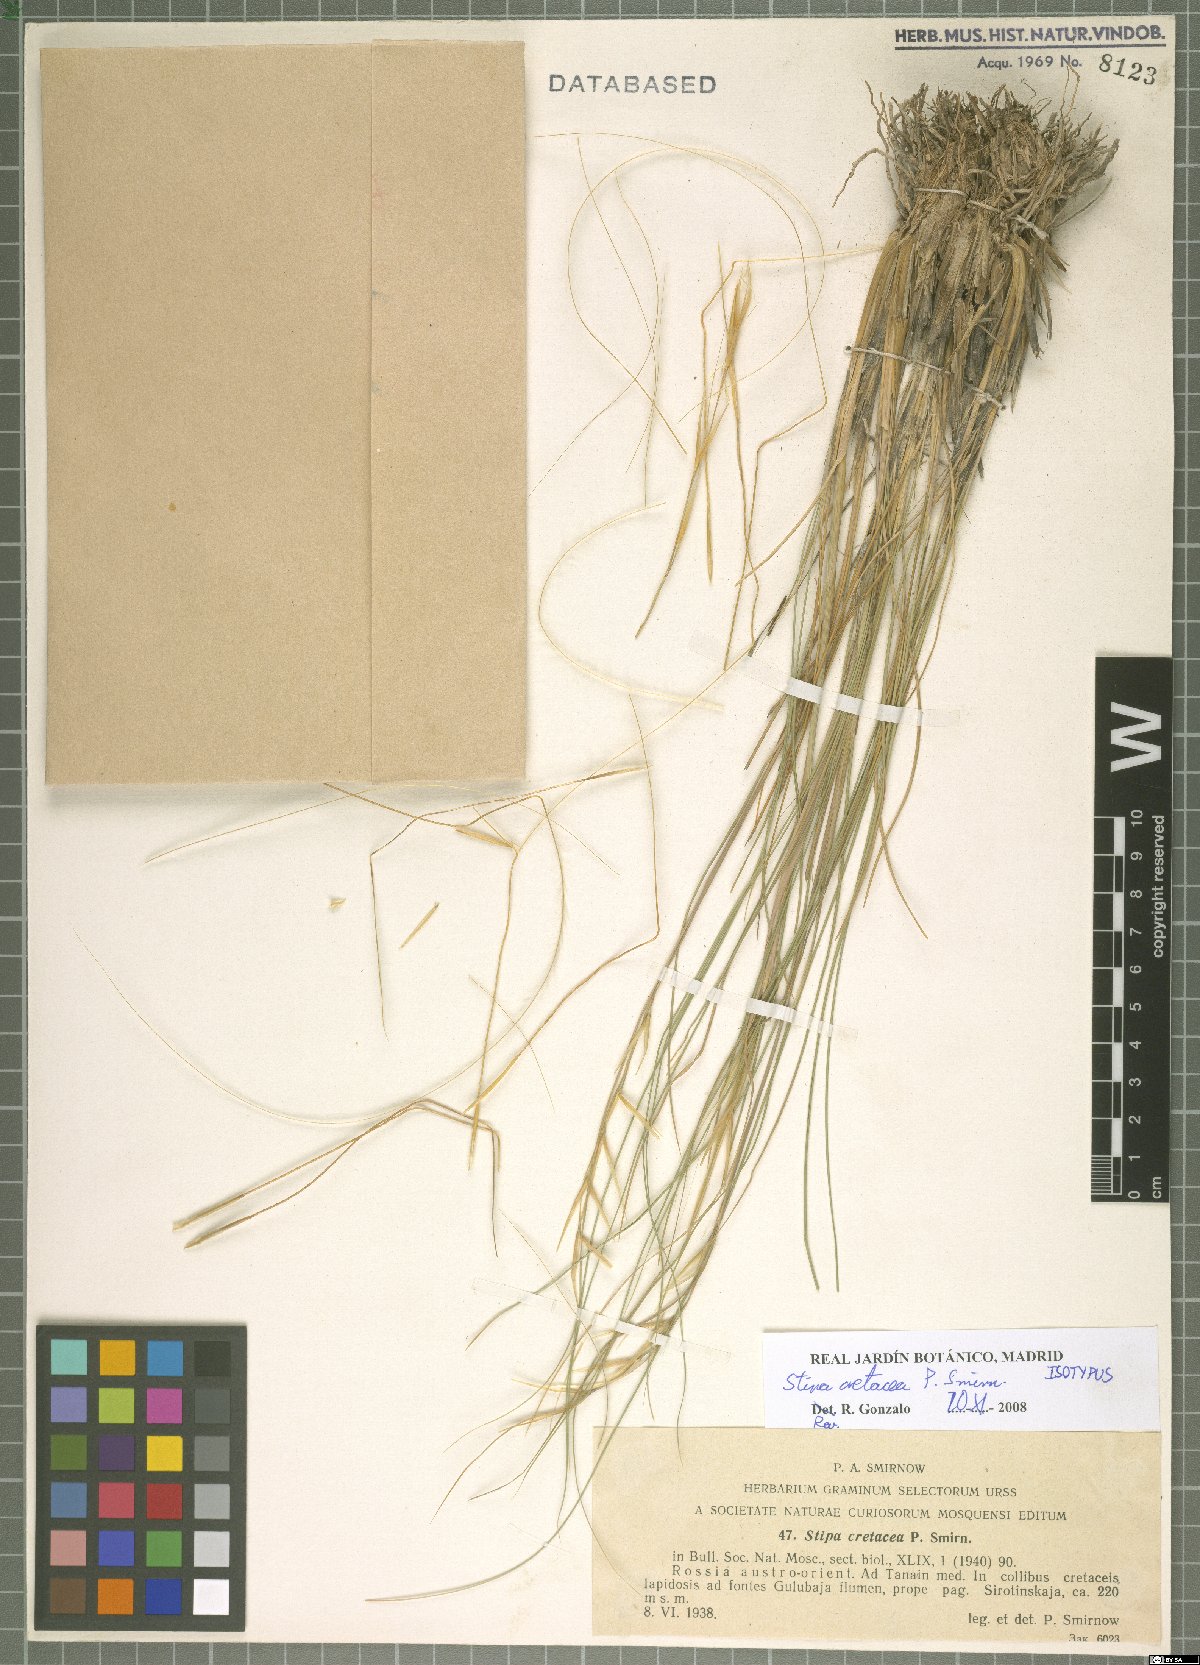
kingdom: Plantae
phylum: Tracheophyta
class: Liliopsida
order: Poales
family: Poaceae
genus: Stipa
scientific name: Stipa cretacea
